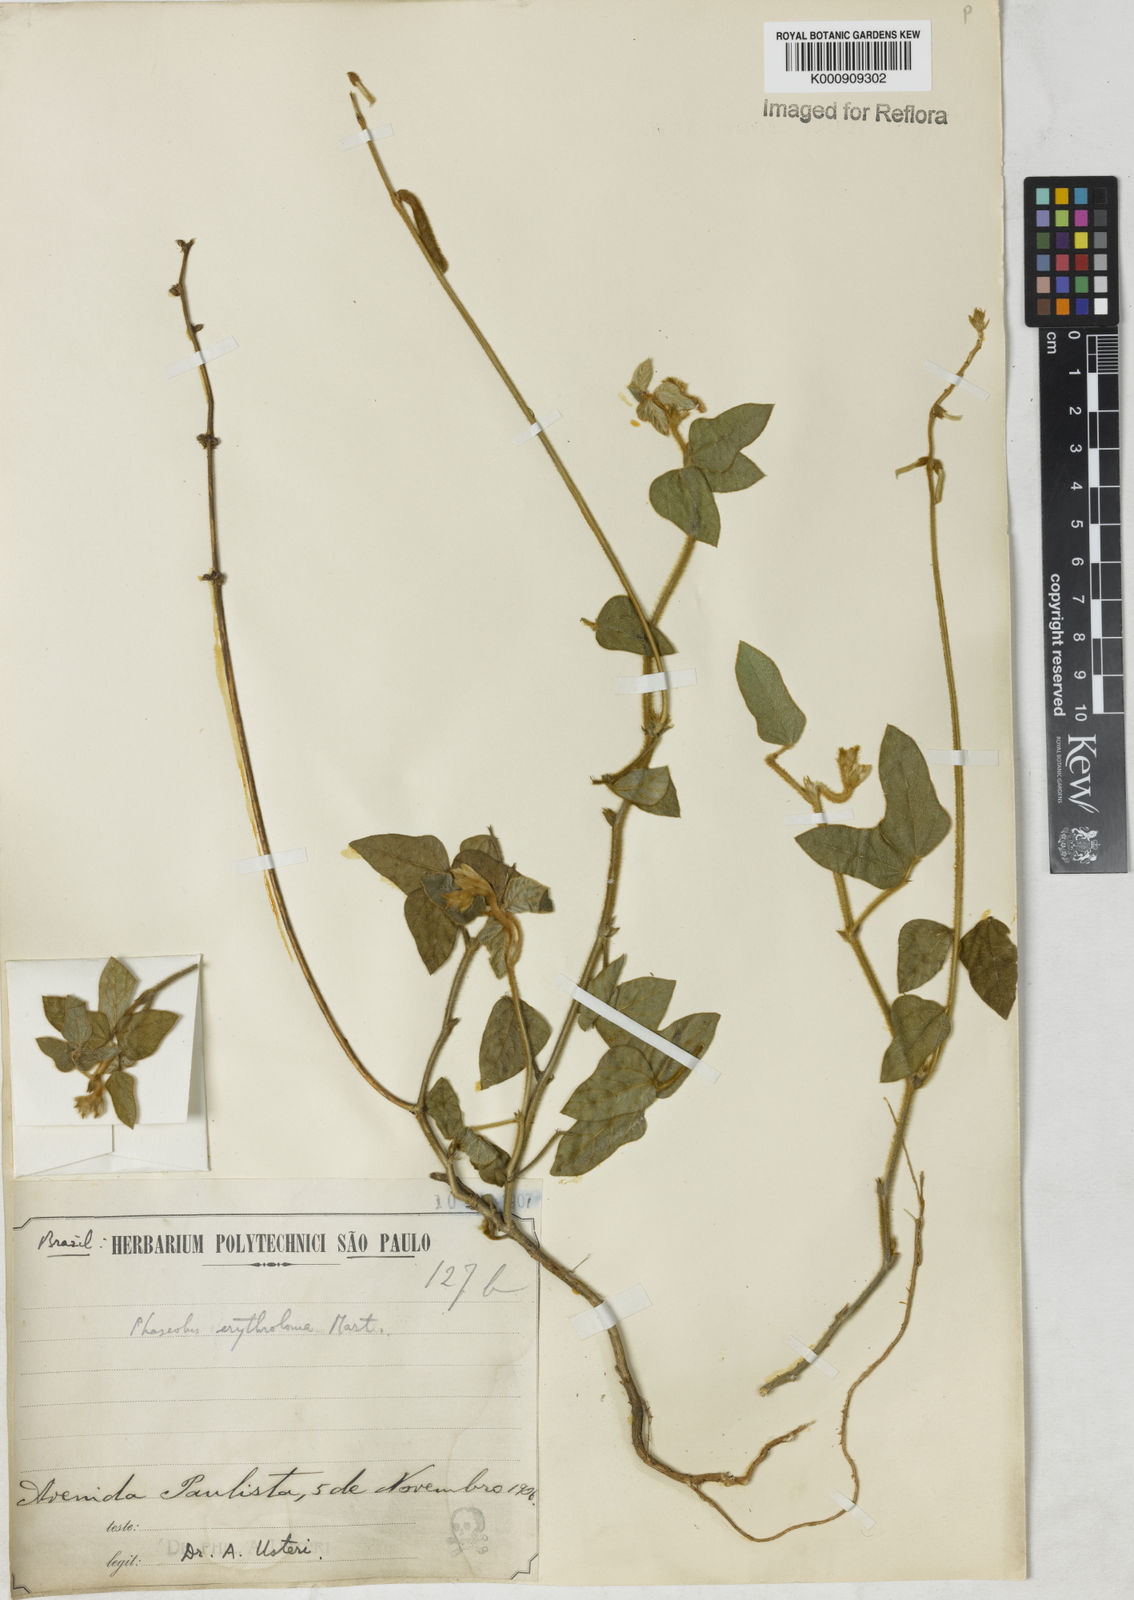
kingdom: Plantae
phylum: Tracheophyta
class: Magnoliopsida
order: Fabales
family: Fabaceae
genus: Macroptilium
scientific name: Macroptilium erythroloma
